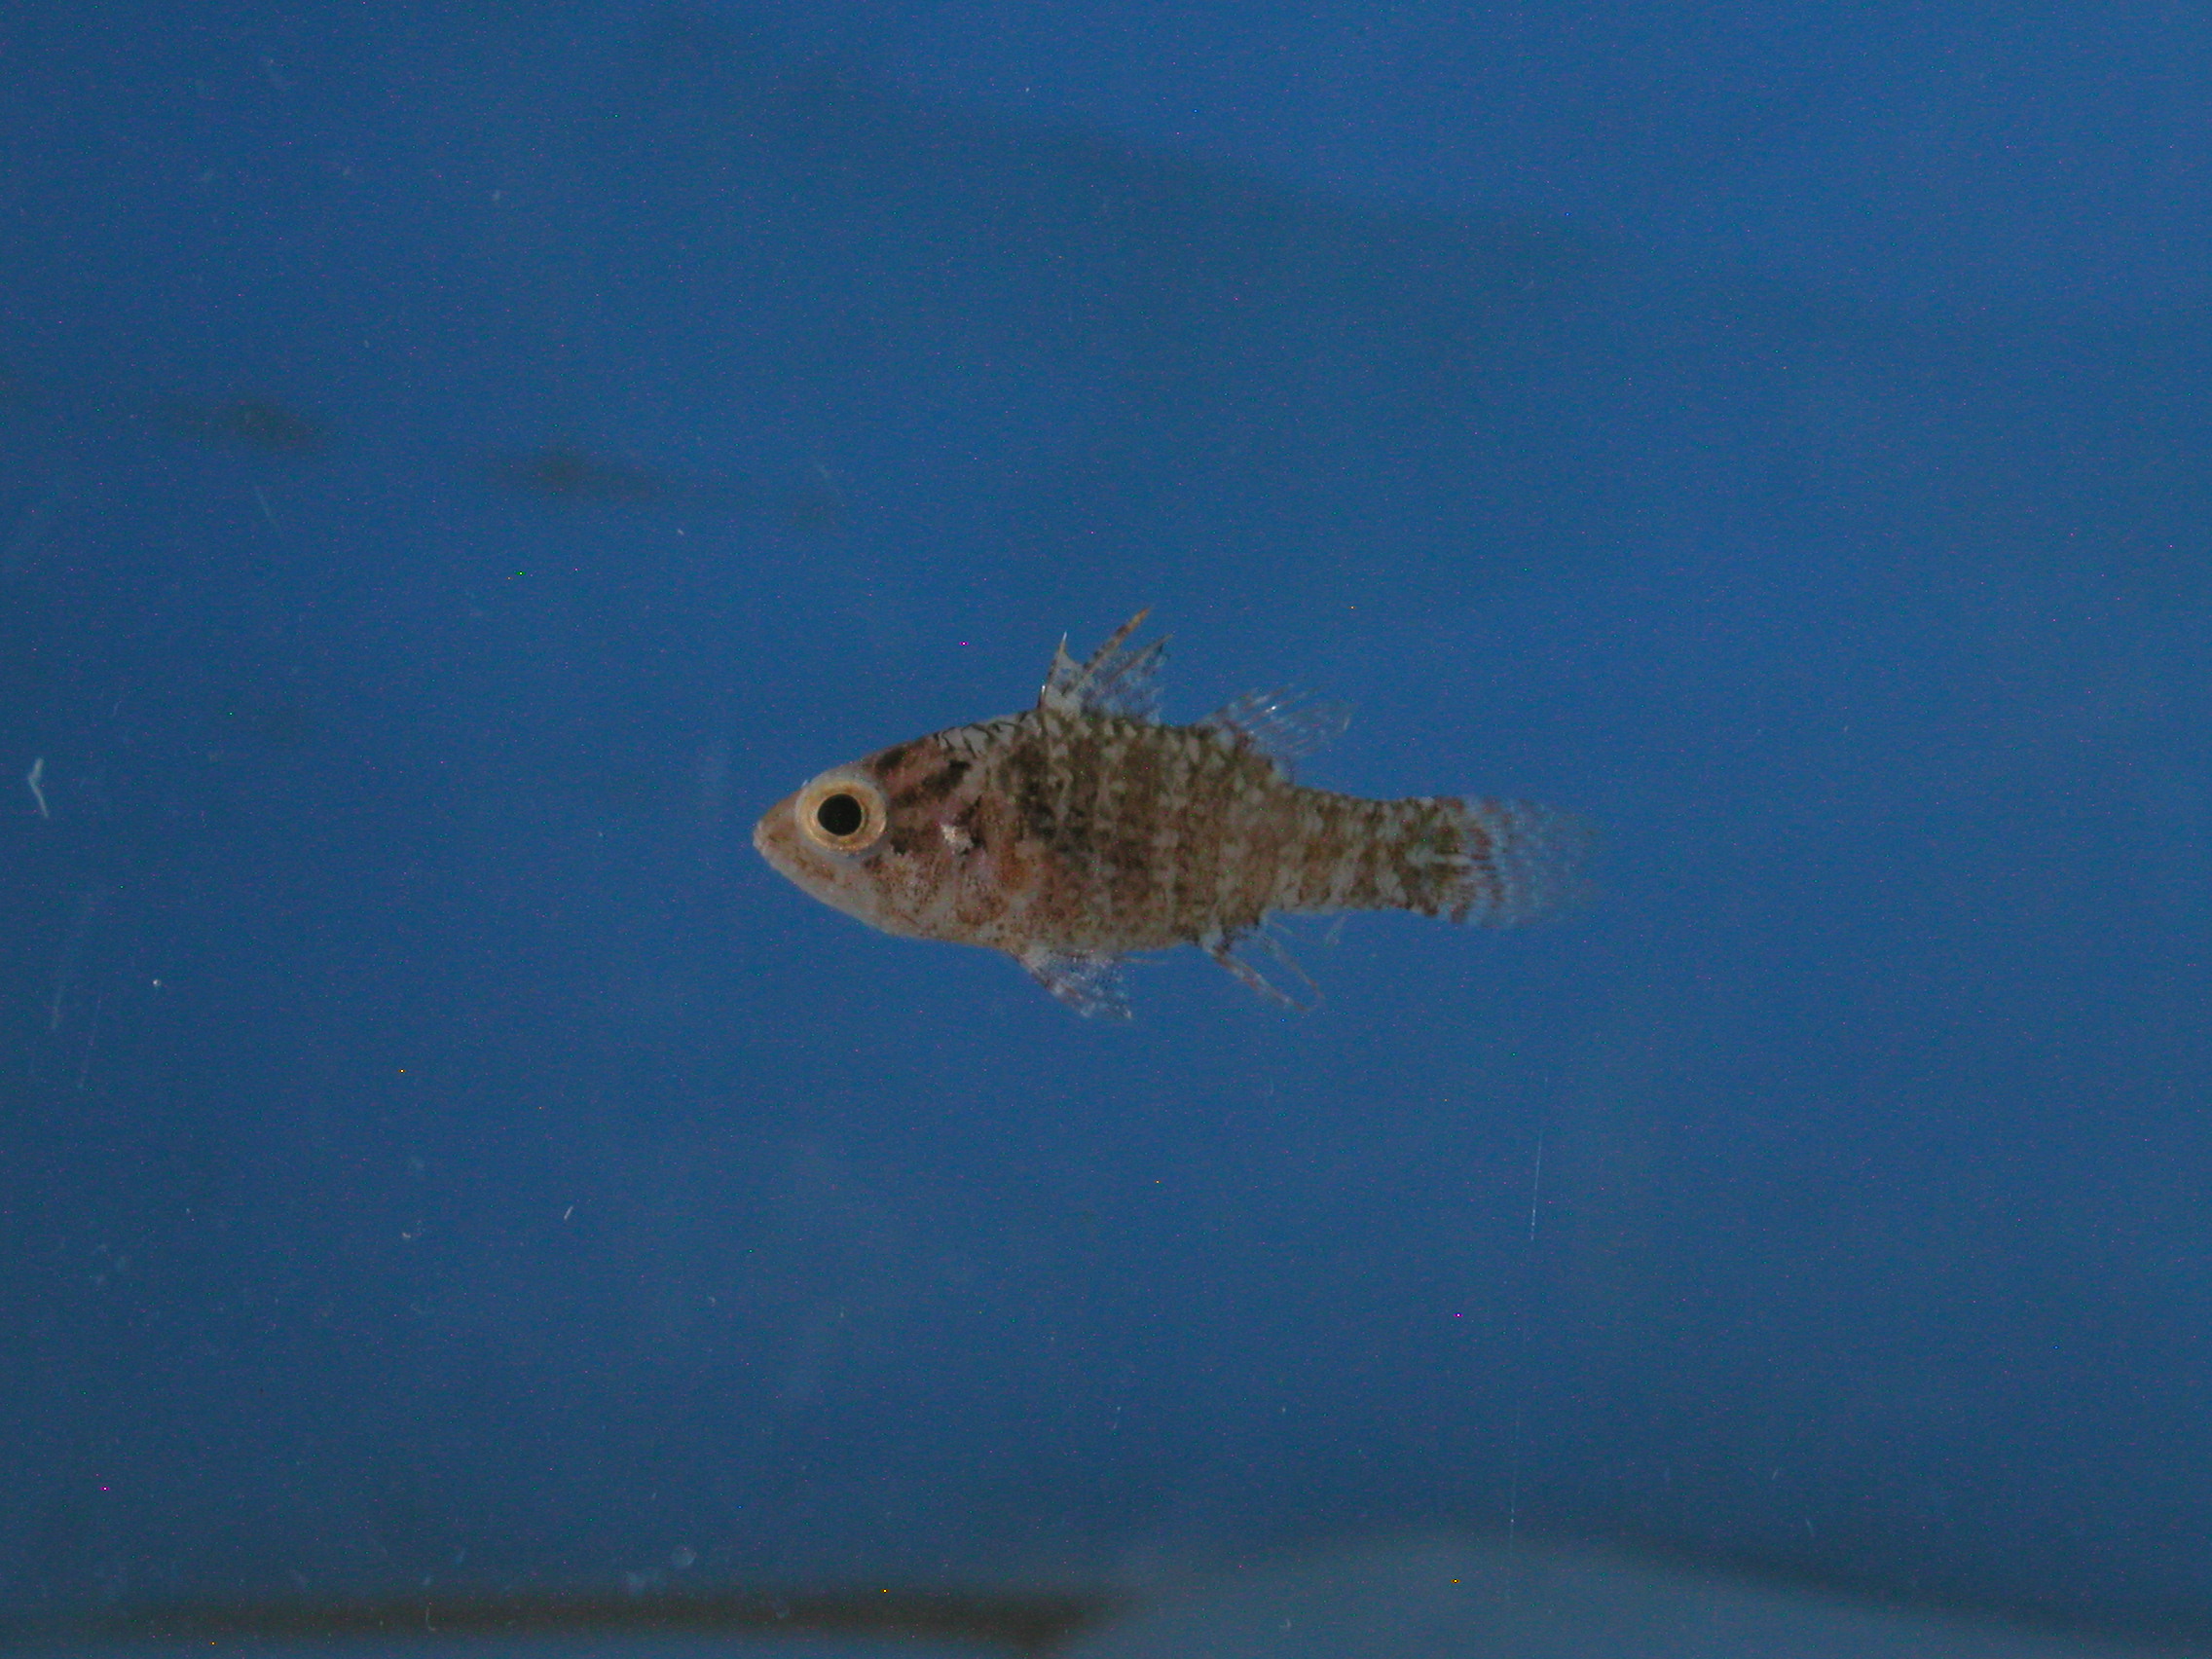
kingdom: Animalia
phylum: Chordata
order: Perciformes
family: Apogonidae
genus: Fowleria
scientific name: Fowleria vaiulae
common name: Dwarf cardinalfish
